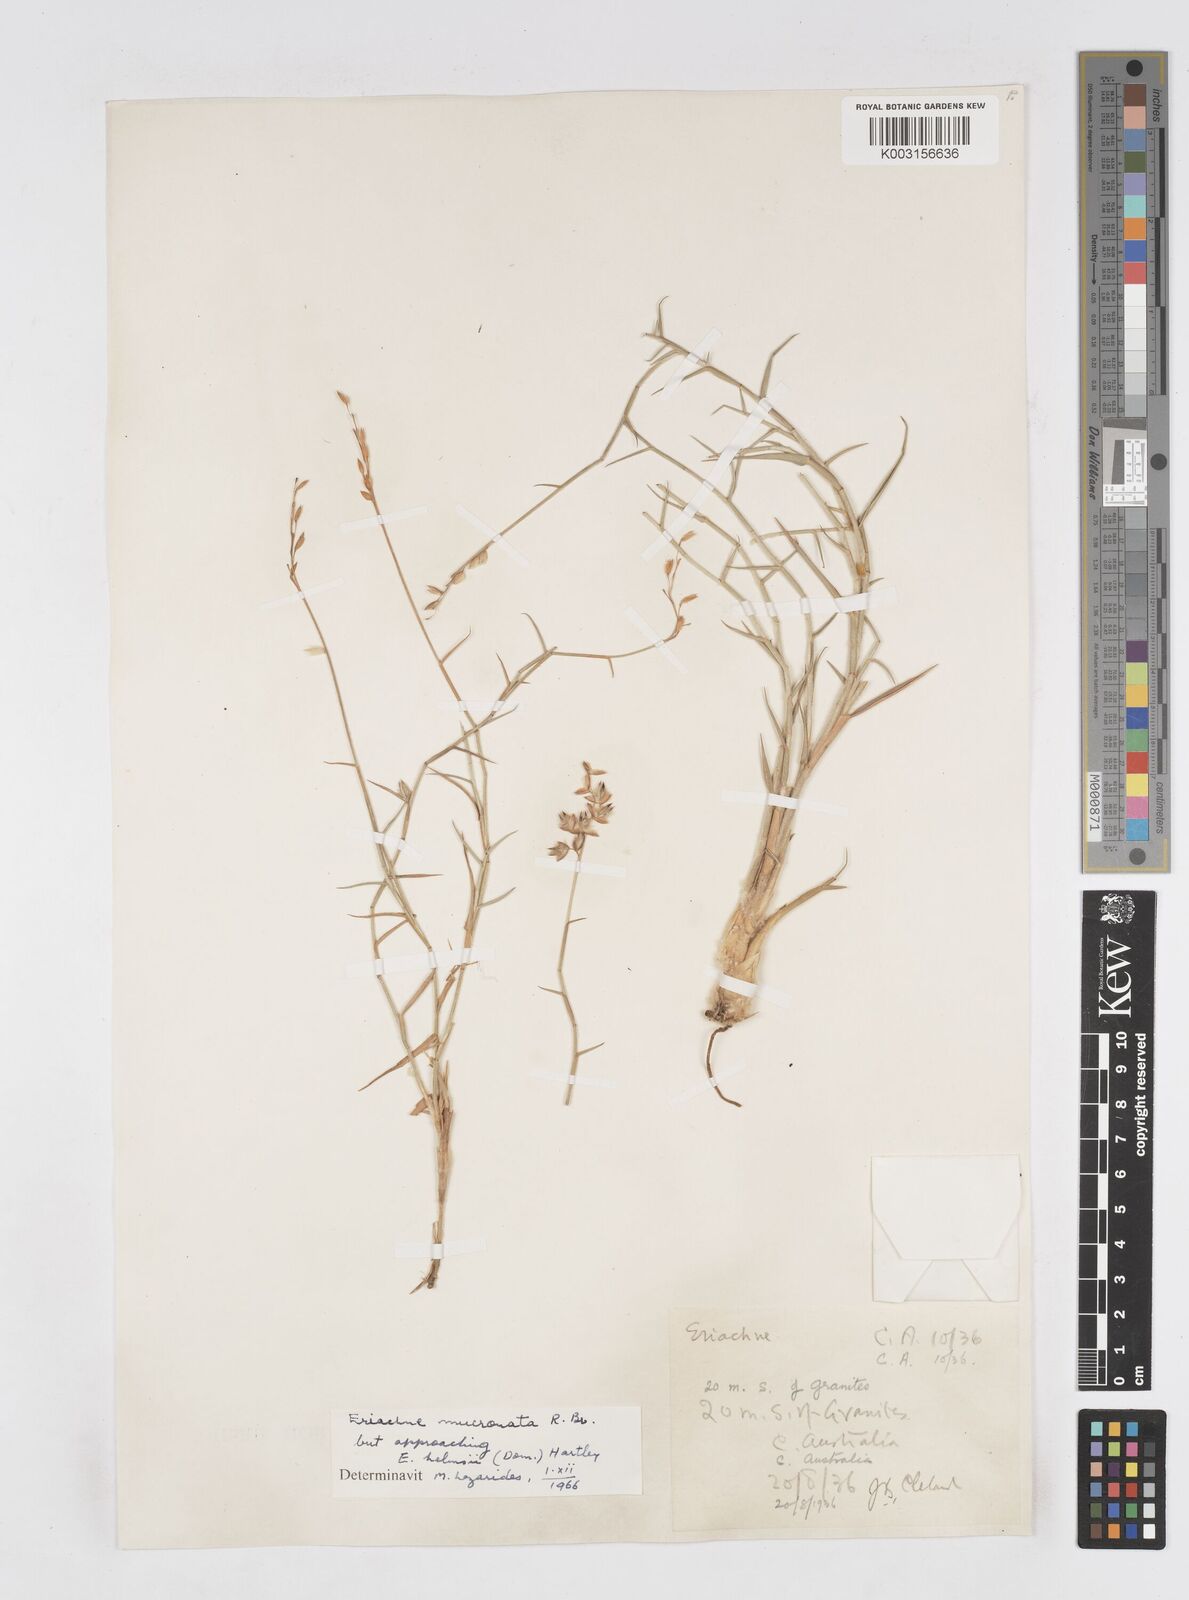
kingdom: Plantae
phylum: Tracheophyta
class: Liliopsida
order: Poales
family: Poaceae
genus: Eriachne
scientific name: Eriachne helmsii
